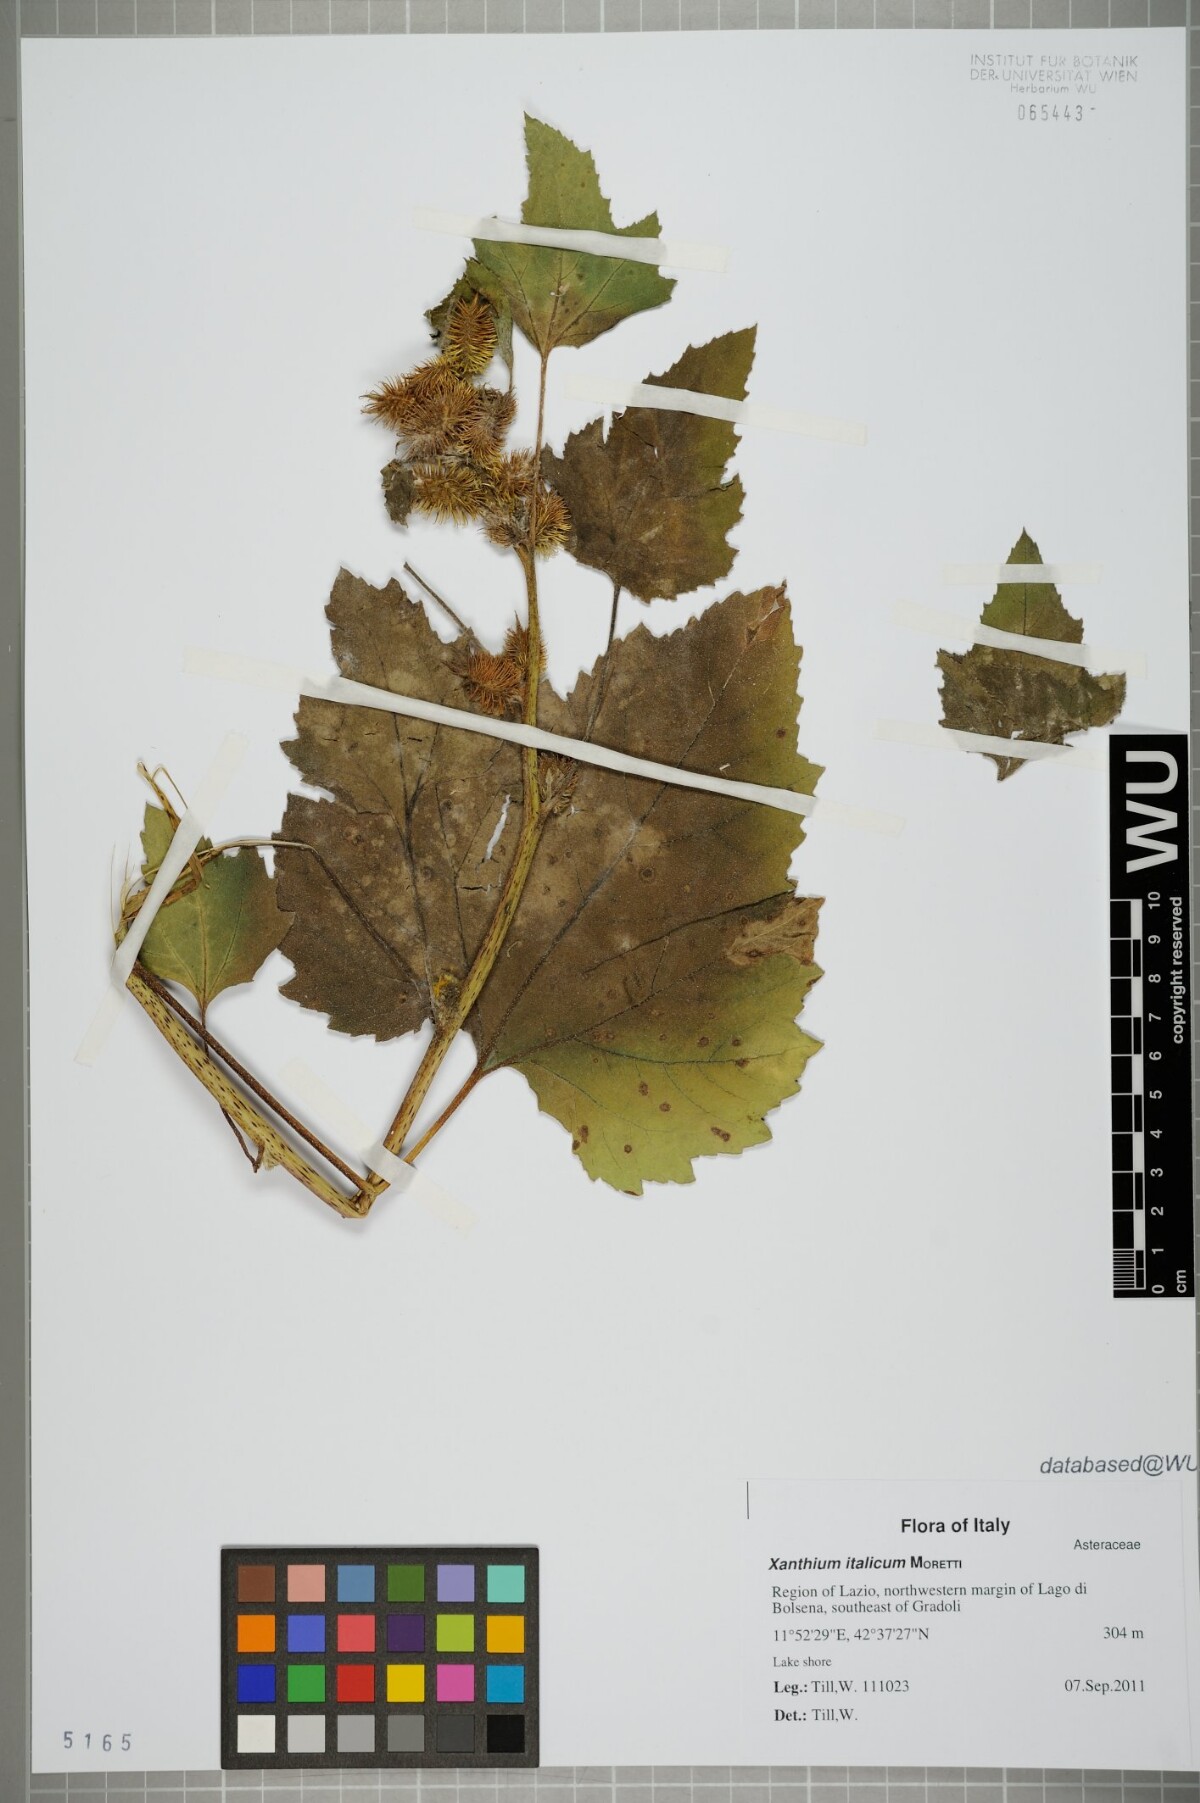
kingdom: Plantae
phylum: Tracheophyta
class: Magnoliopsida
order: Asterales
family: Asteraceae
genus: Xanthium
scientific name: Xanthium orientale
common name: Californian burr
